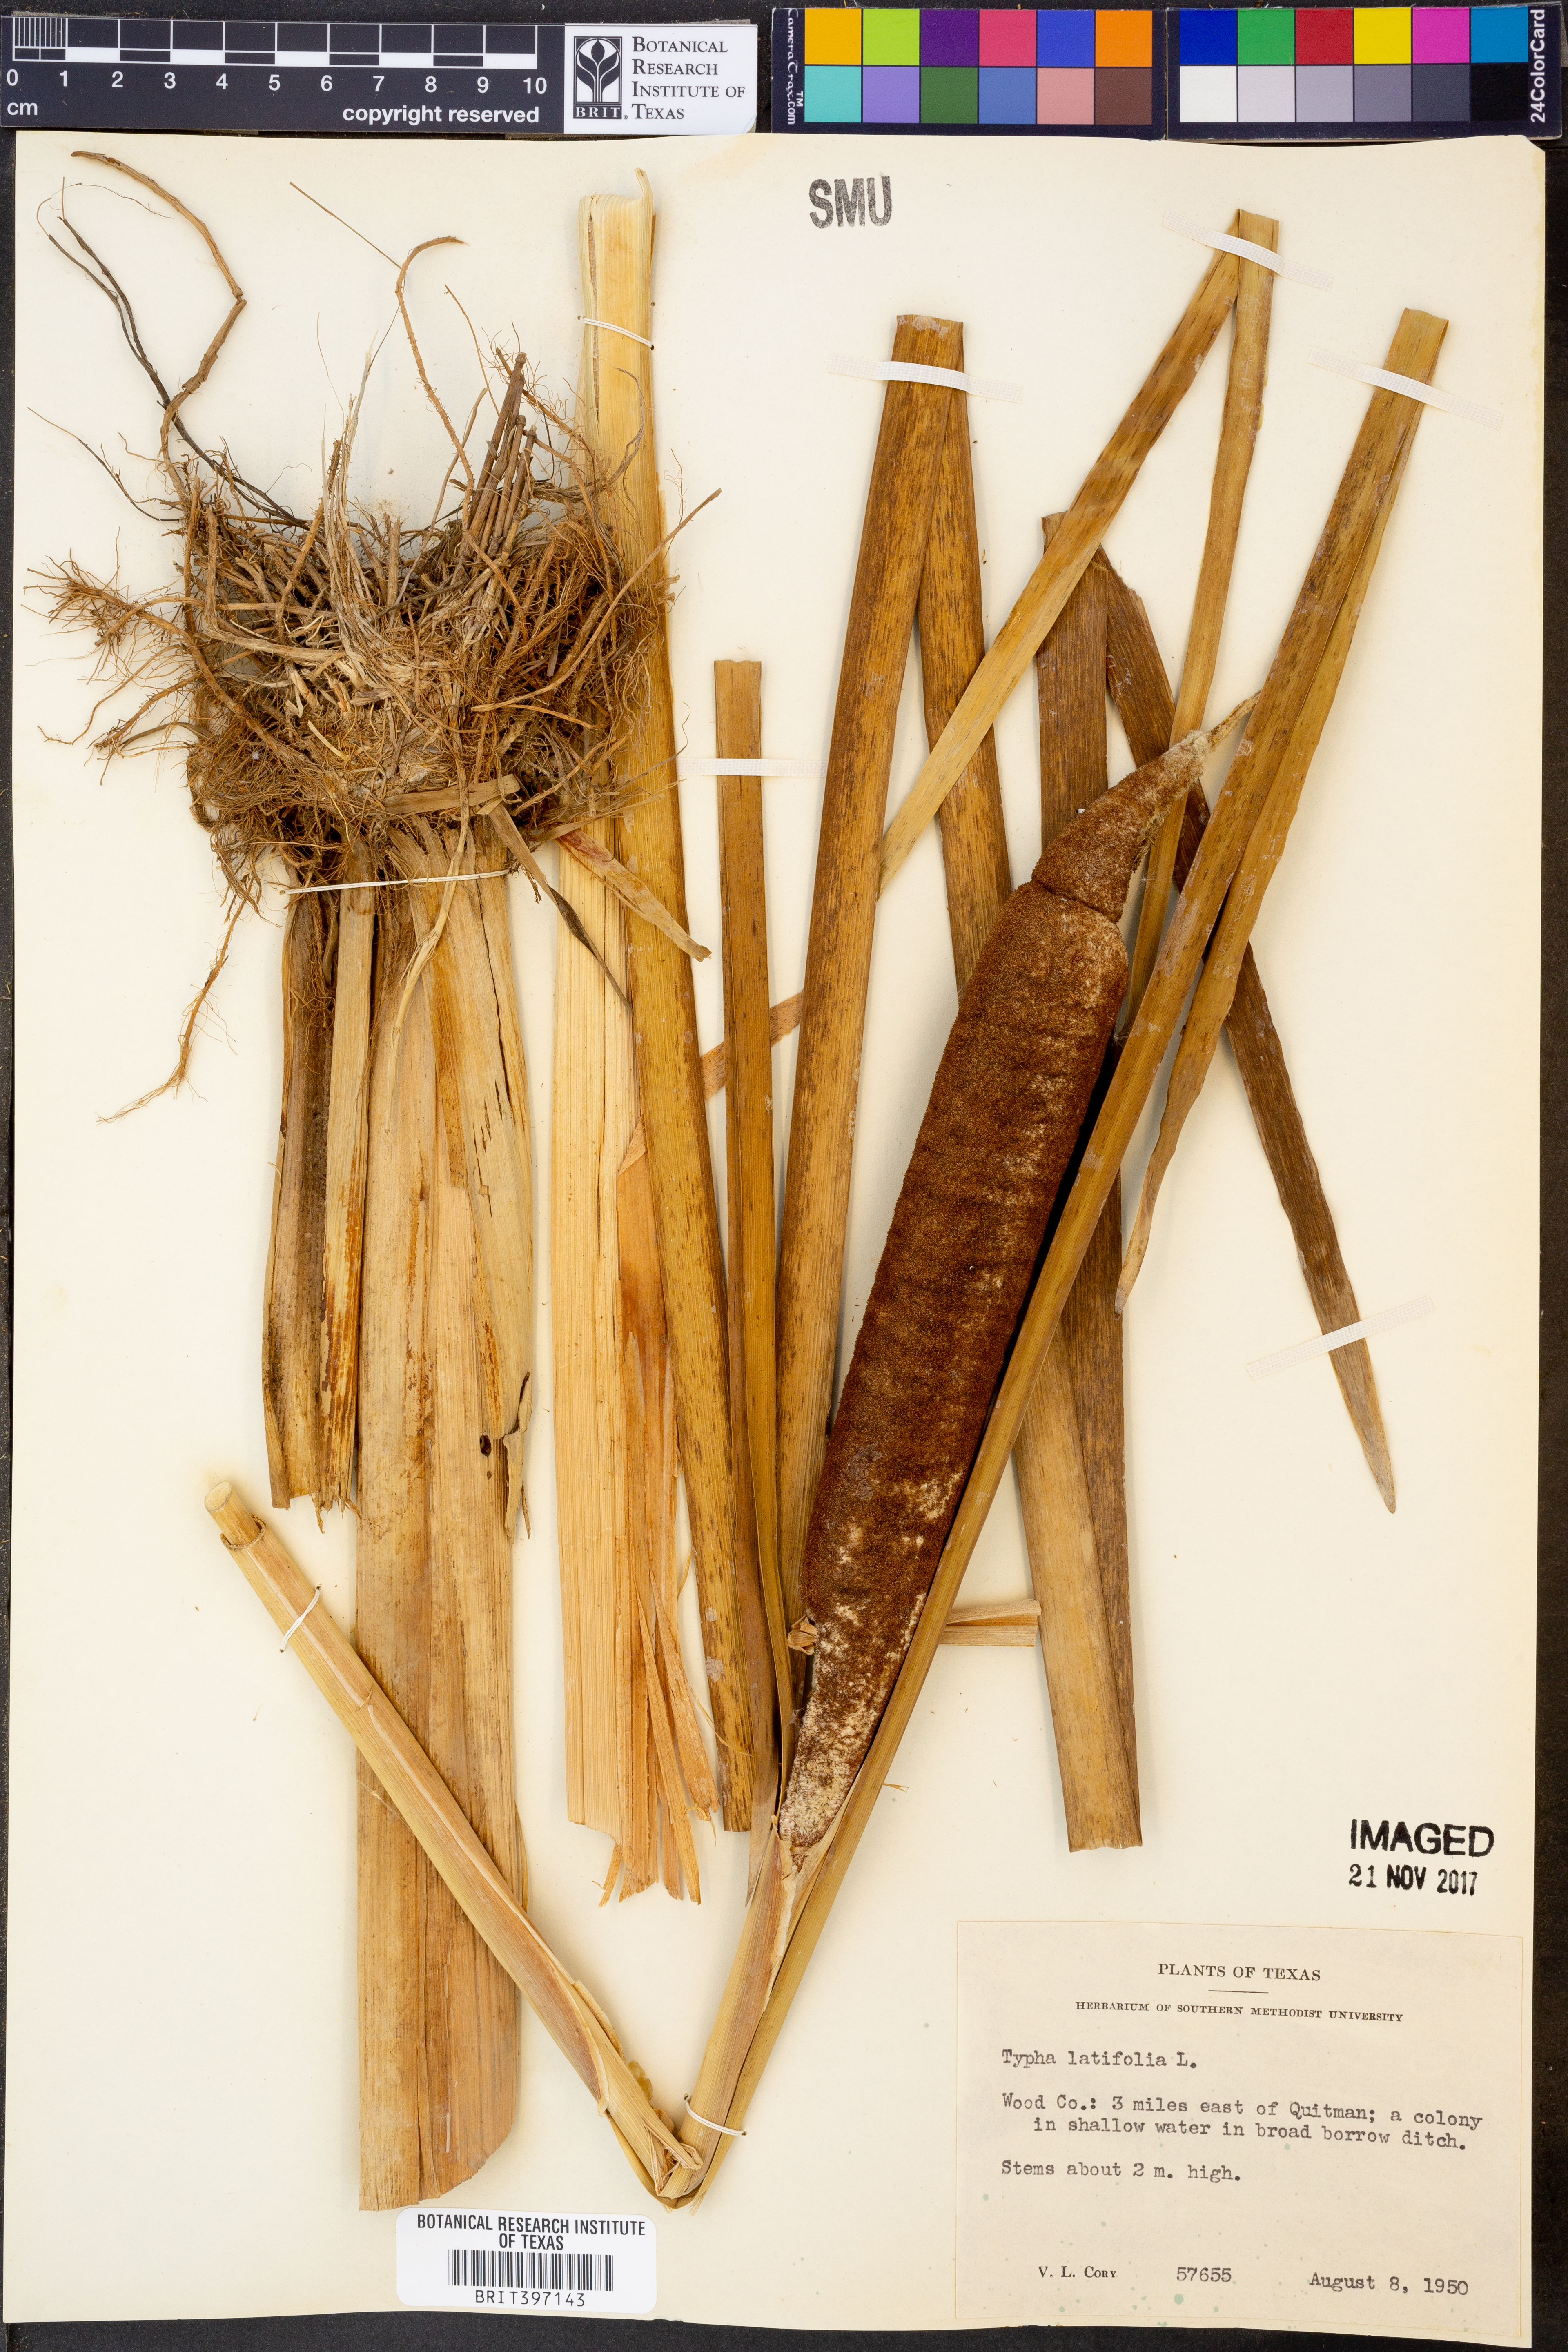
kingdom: Plantae
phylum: Tracheophyta
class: Liliopsida
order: Poales
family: Typhaceae
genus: Typha
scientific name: Typha latifolia
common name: Broadleaf cattail
